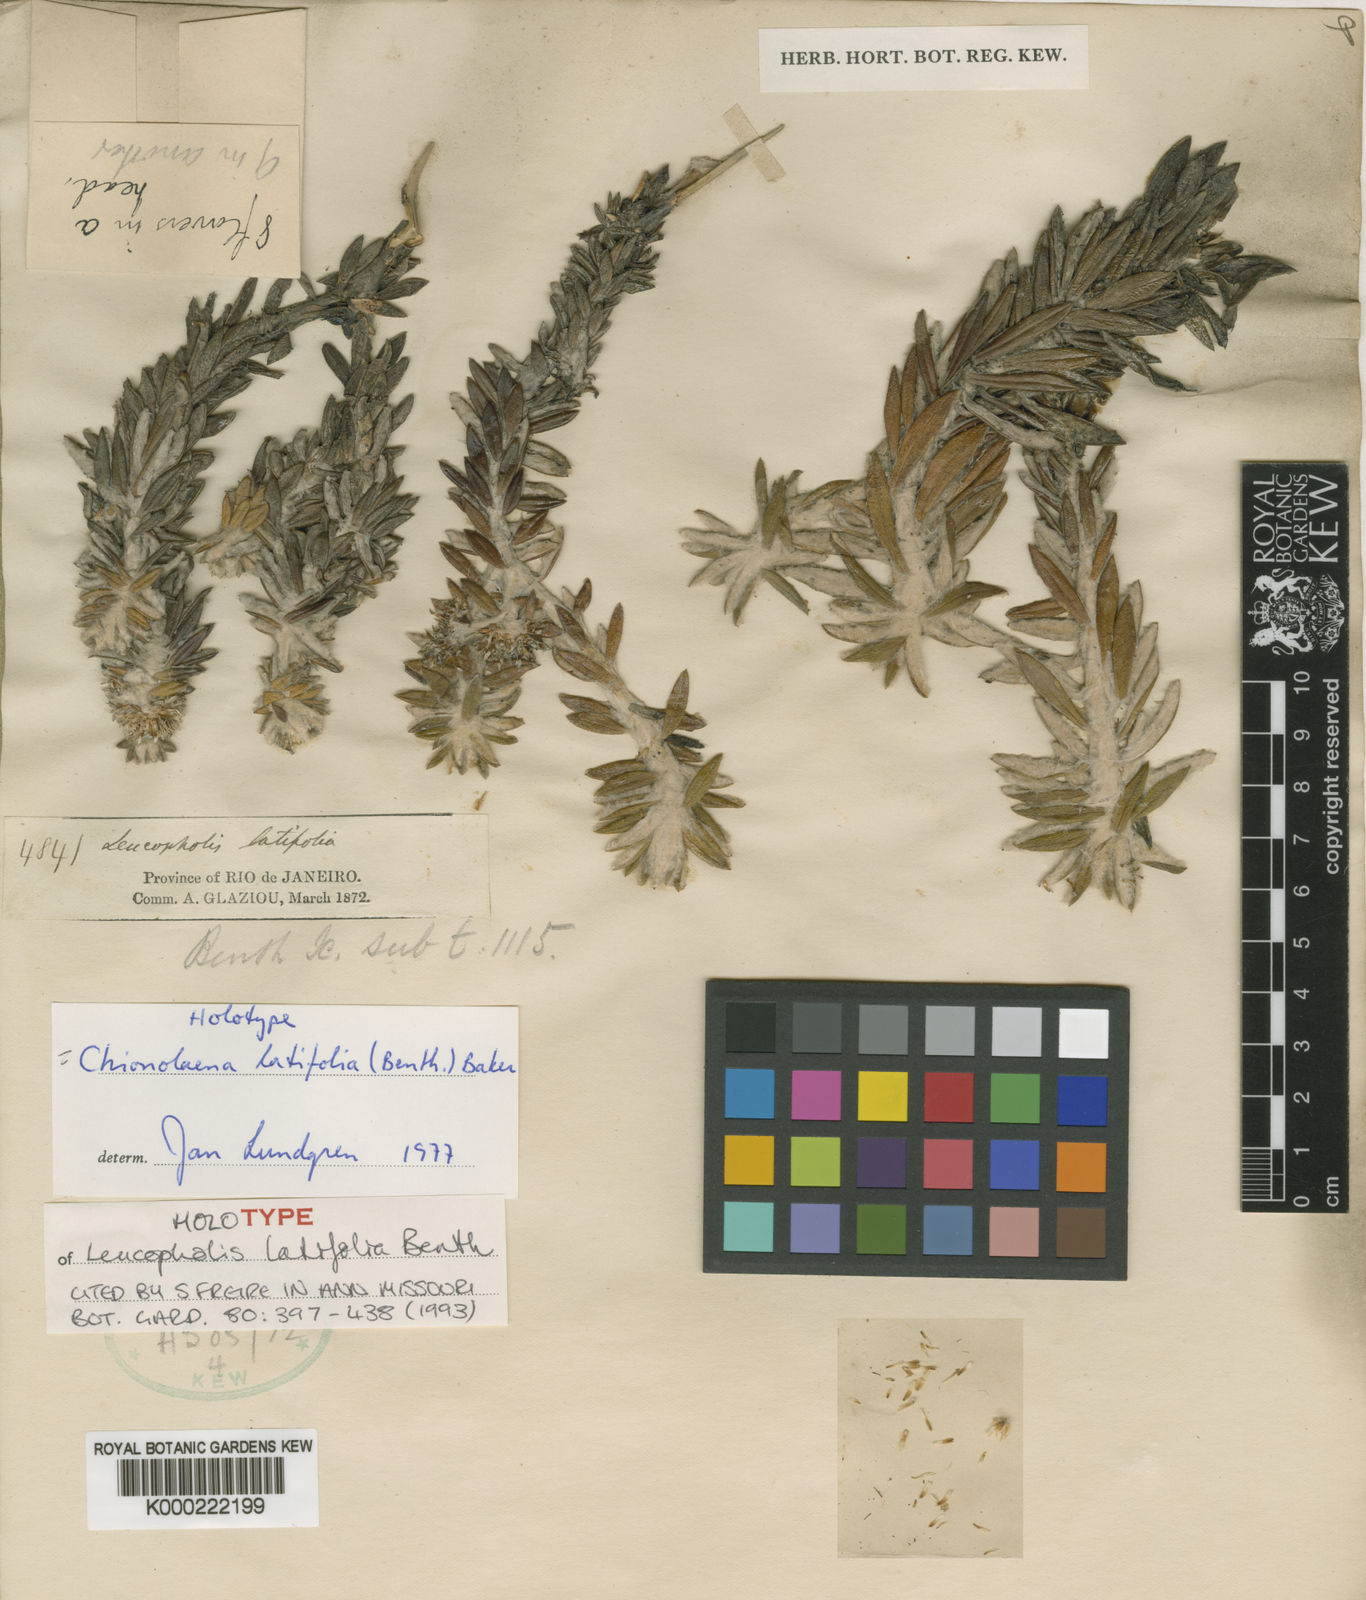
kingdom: Plantae
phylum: Tracheophyta
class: Magnoliopsida
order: Asterales
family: Asteraceae
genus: Chionolaena
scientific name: Chionolaena latifolia
